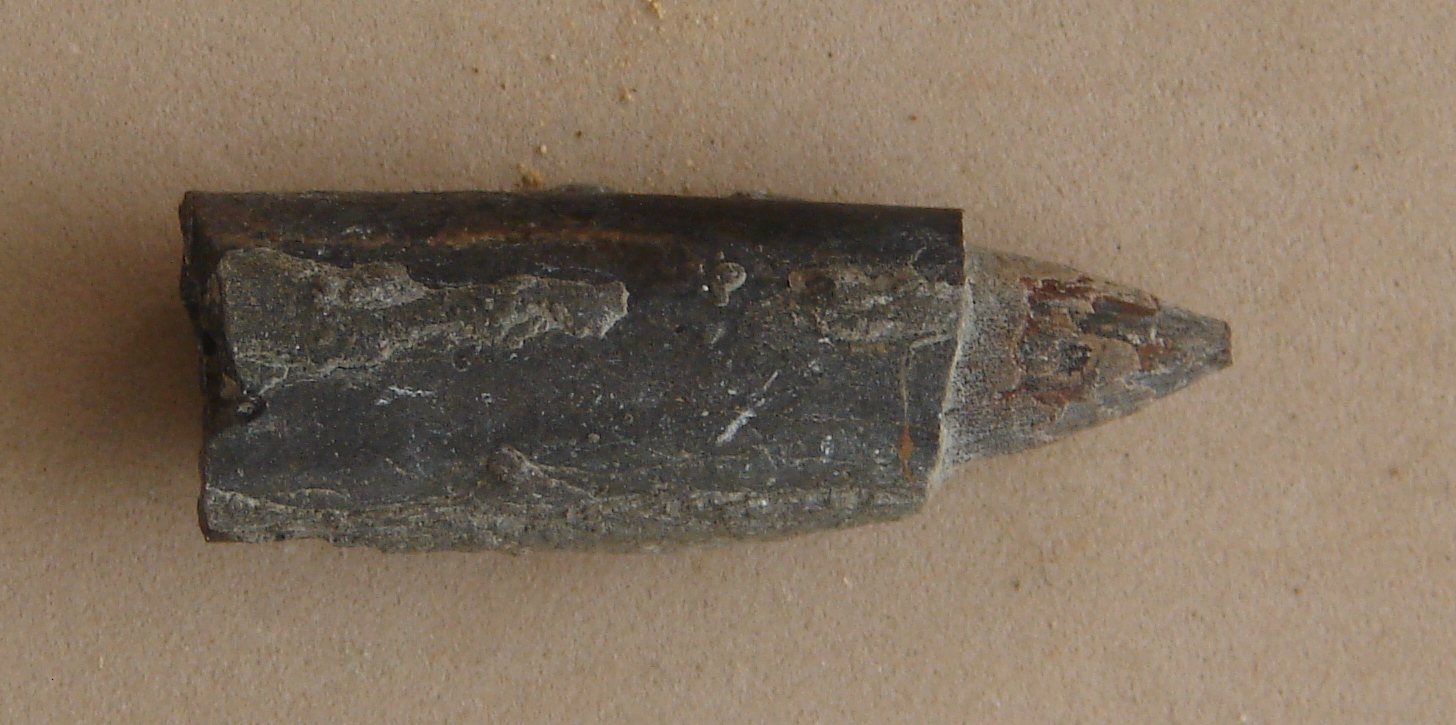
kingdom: Animalia
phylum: Mollusca
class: Cephalopoda
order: Belemnitida
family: Salpingoteuthididae
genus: Salpingoteuthis
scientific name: Salpingoteuthis
